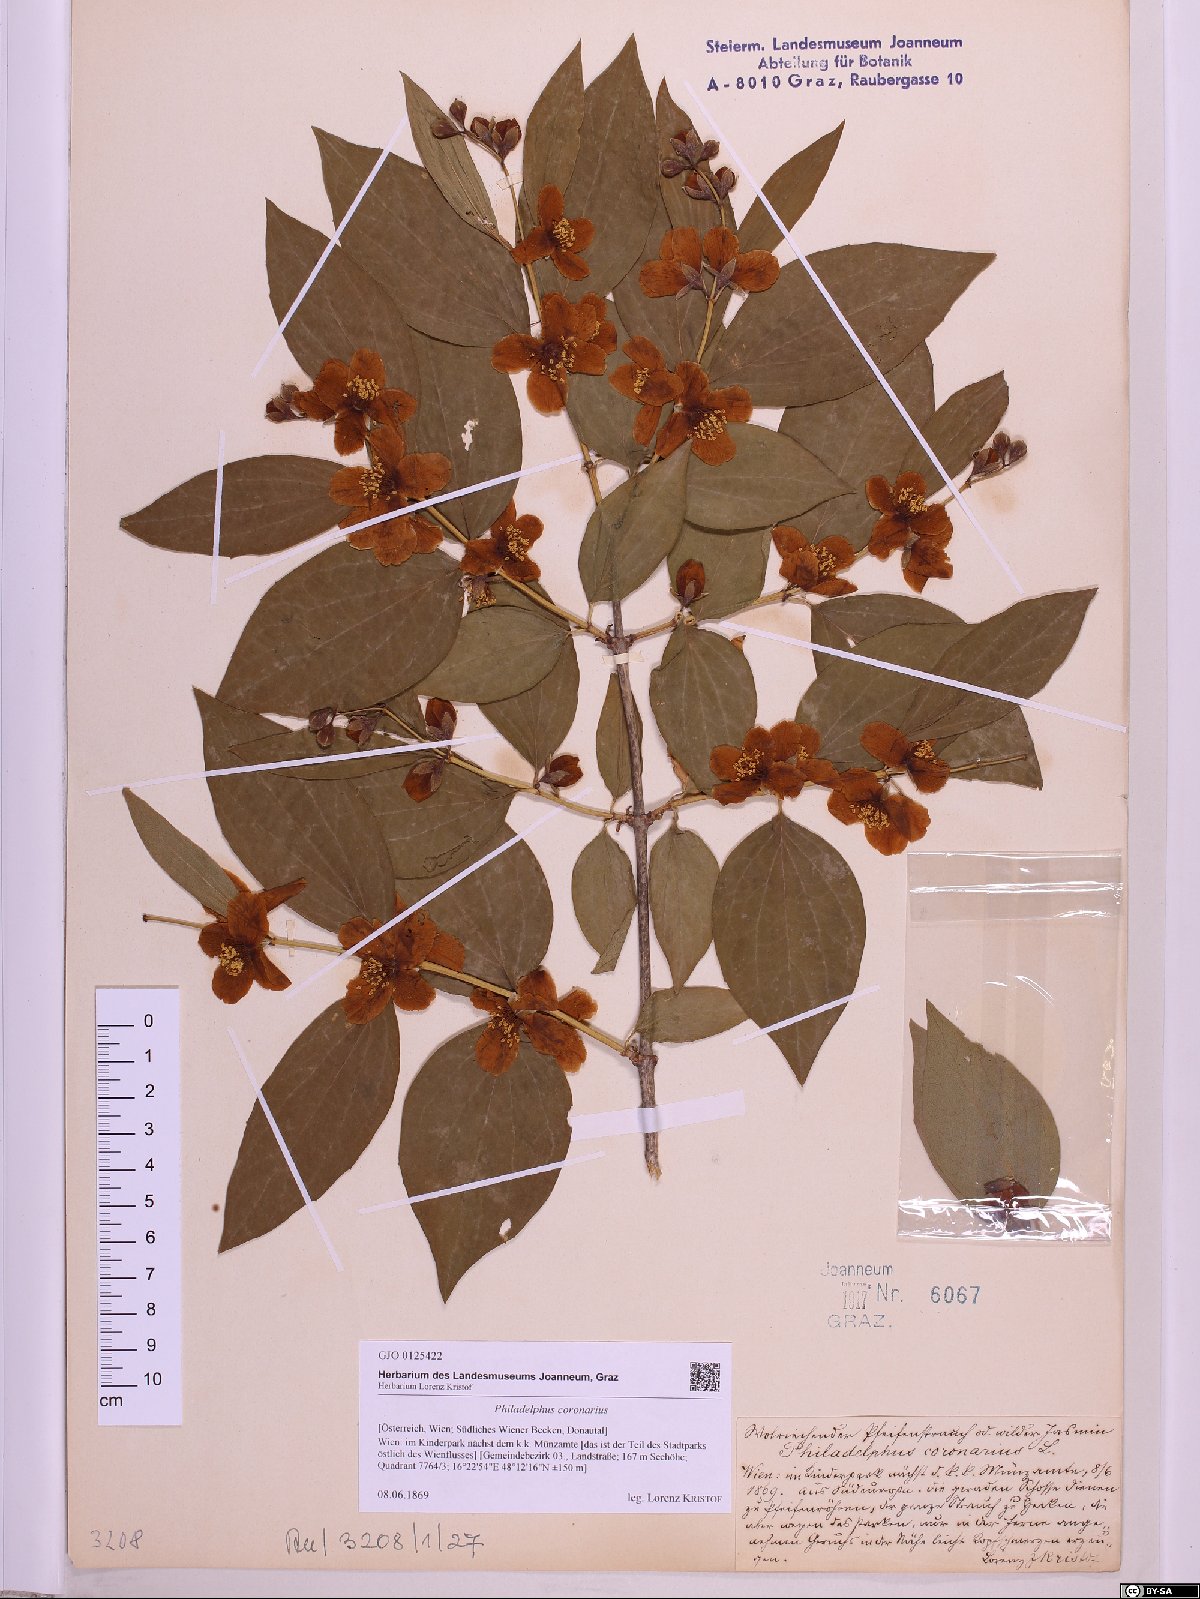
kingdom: Plantae
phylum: Tracheophyta
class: Magnoliopsida
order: Cornales
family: Hydrangeaceae
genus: Philadelphus
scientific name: Philadelphus coronarius
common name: Mock orange
